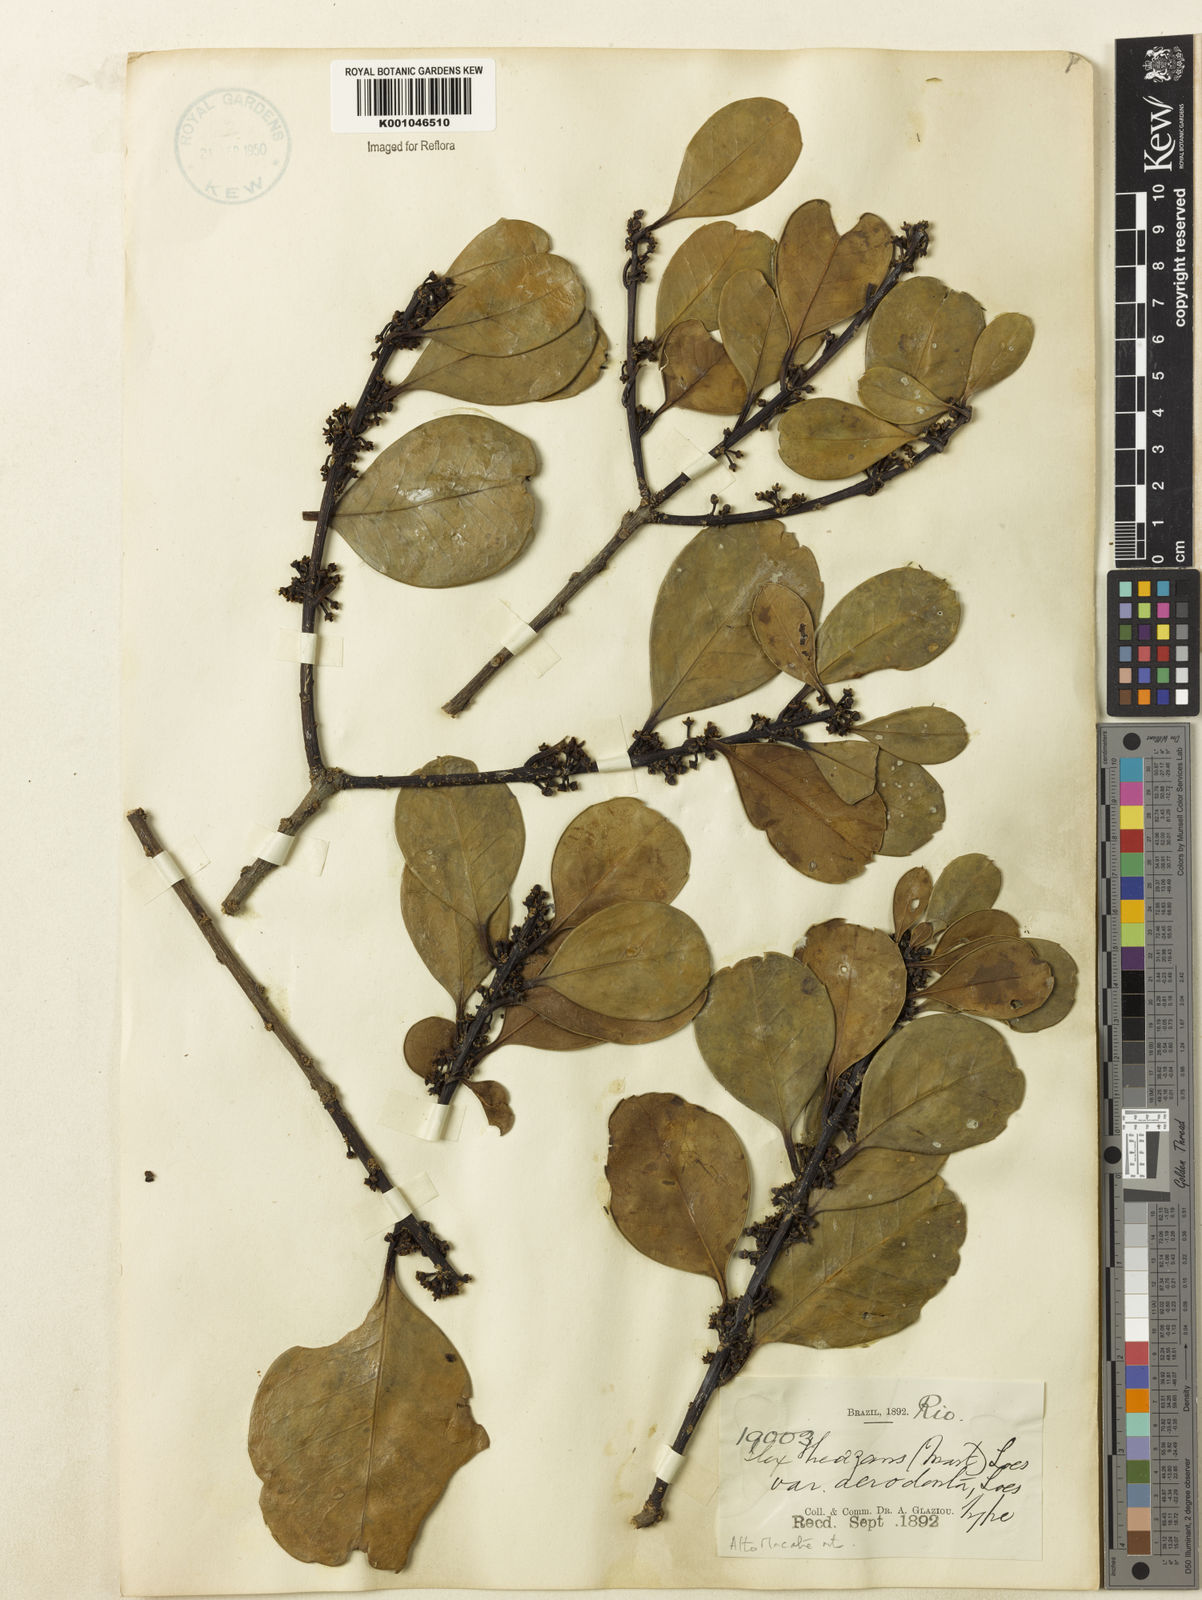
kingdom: Plantae
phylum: Tracheophyta
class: Magnoliopsida
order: Aquifoliales
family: Aquifoliaceae
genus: Ilex
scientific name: Ilex theezans
